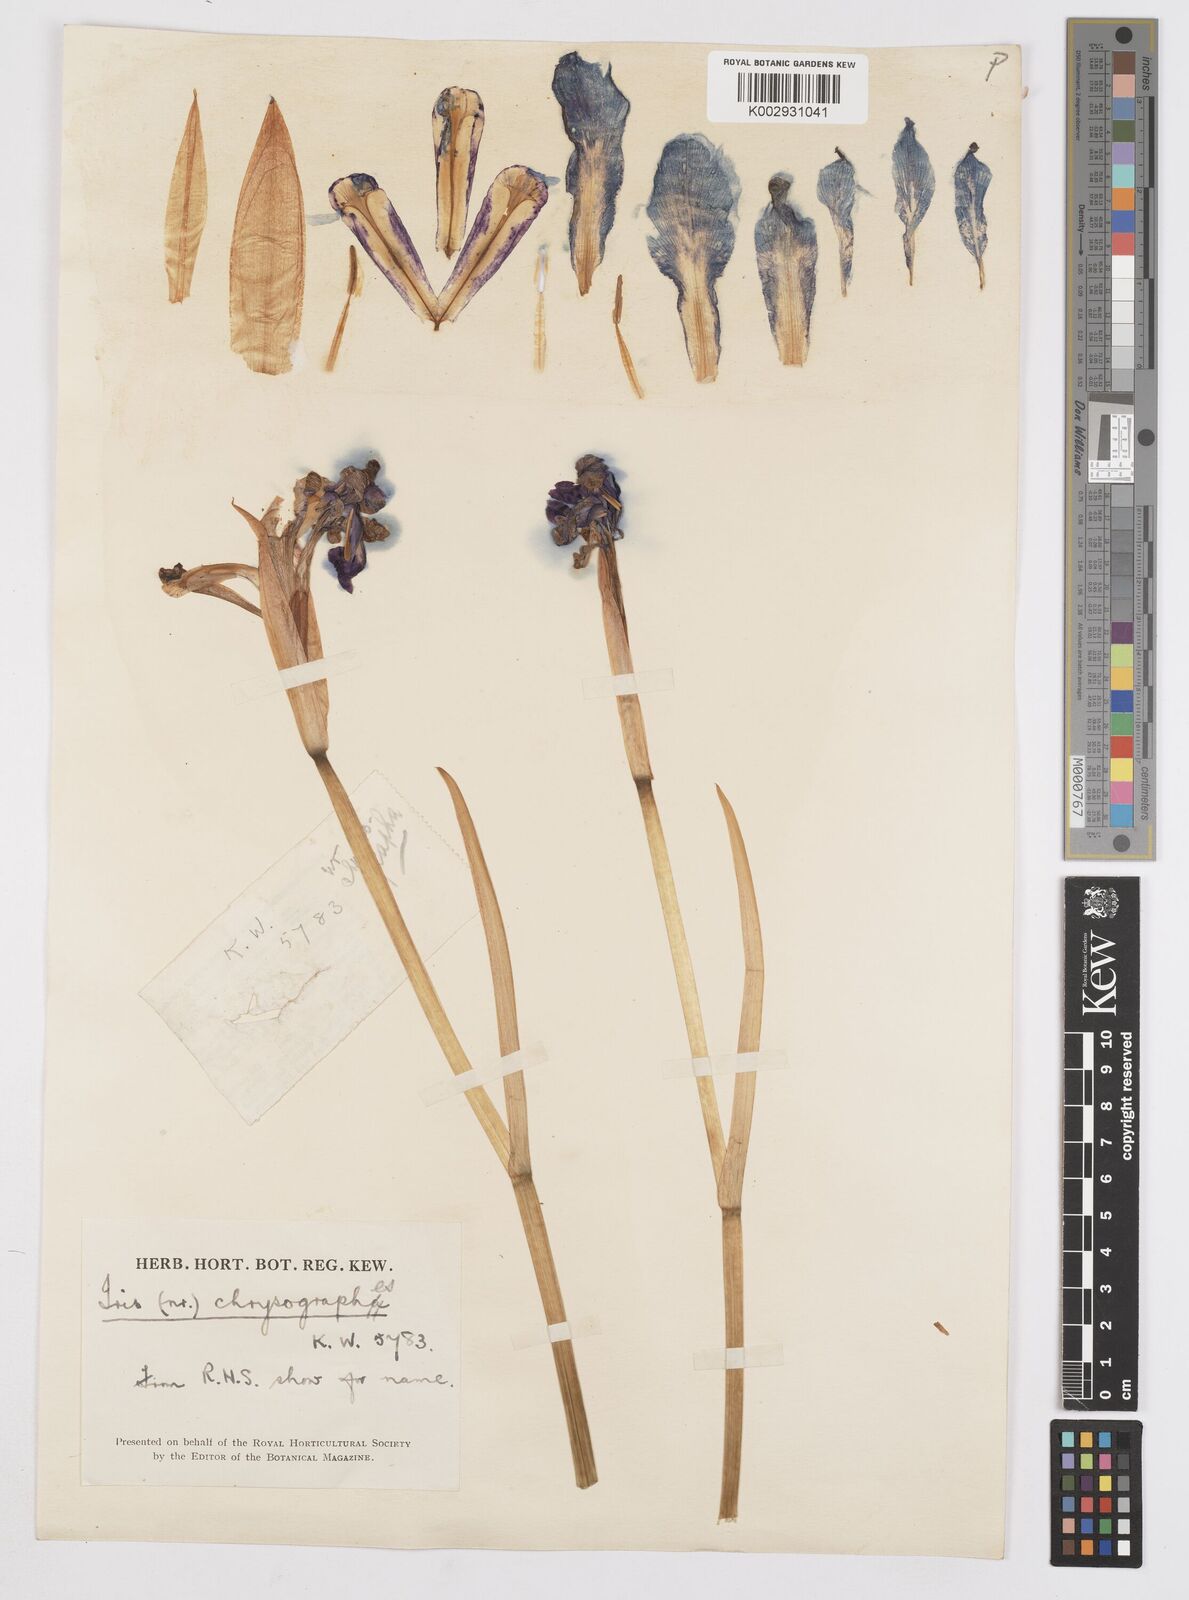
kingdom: Plantae
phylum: Tracheophyta
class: Liliopsida
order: Asparagales
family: Iridaceae
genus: Iris
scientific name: Iris clarkei
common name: Tibet iris
